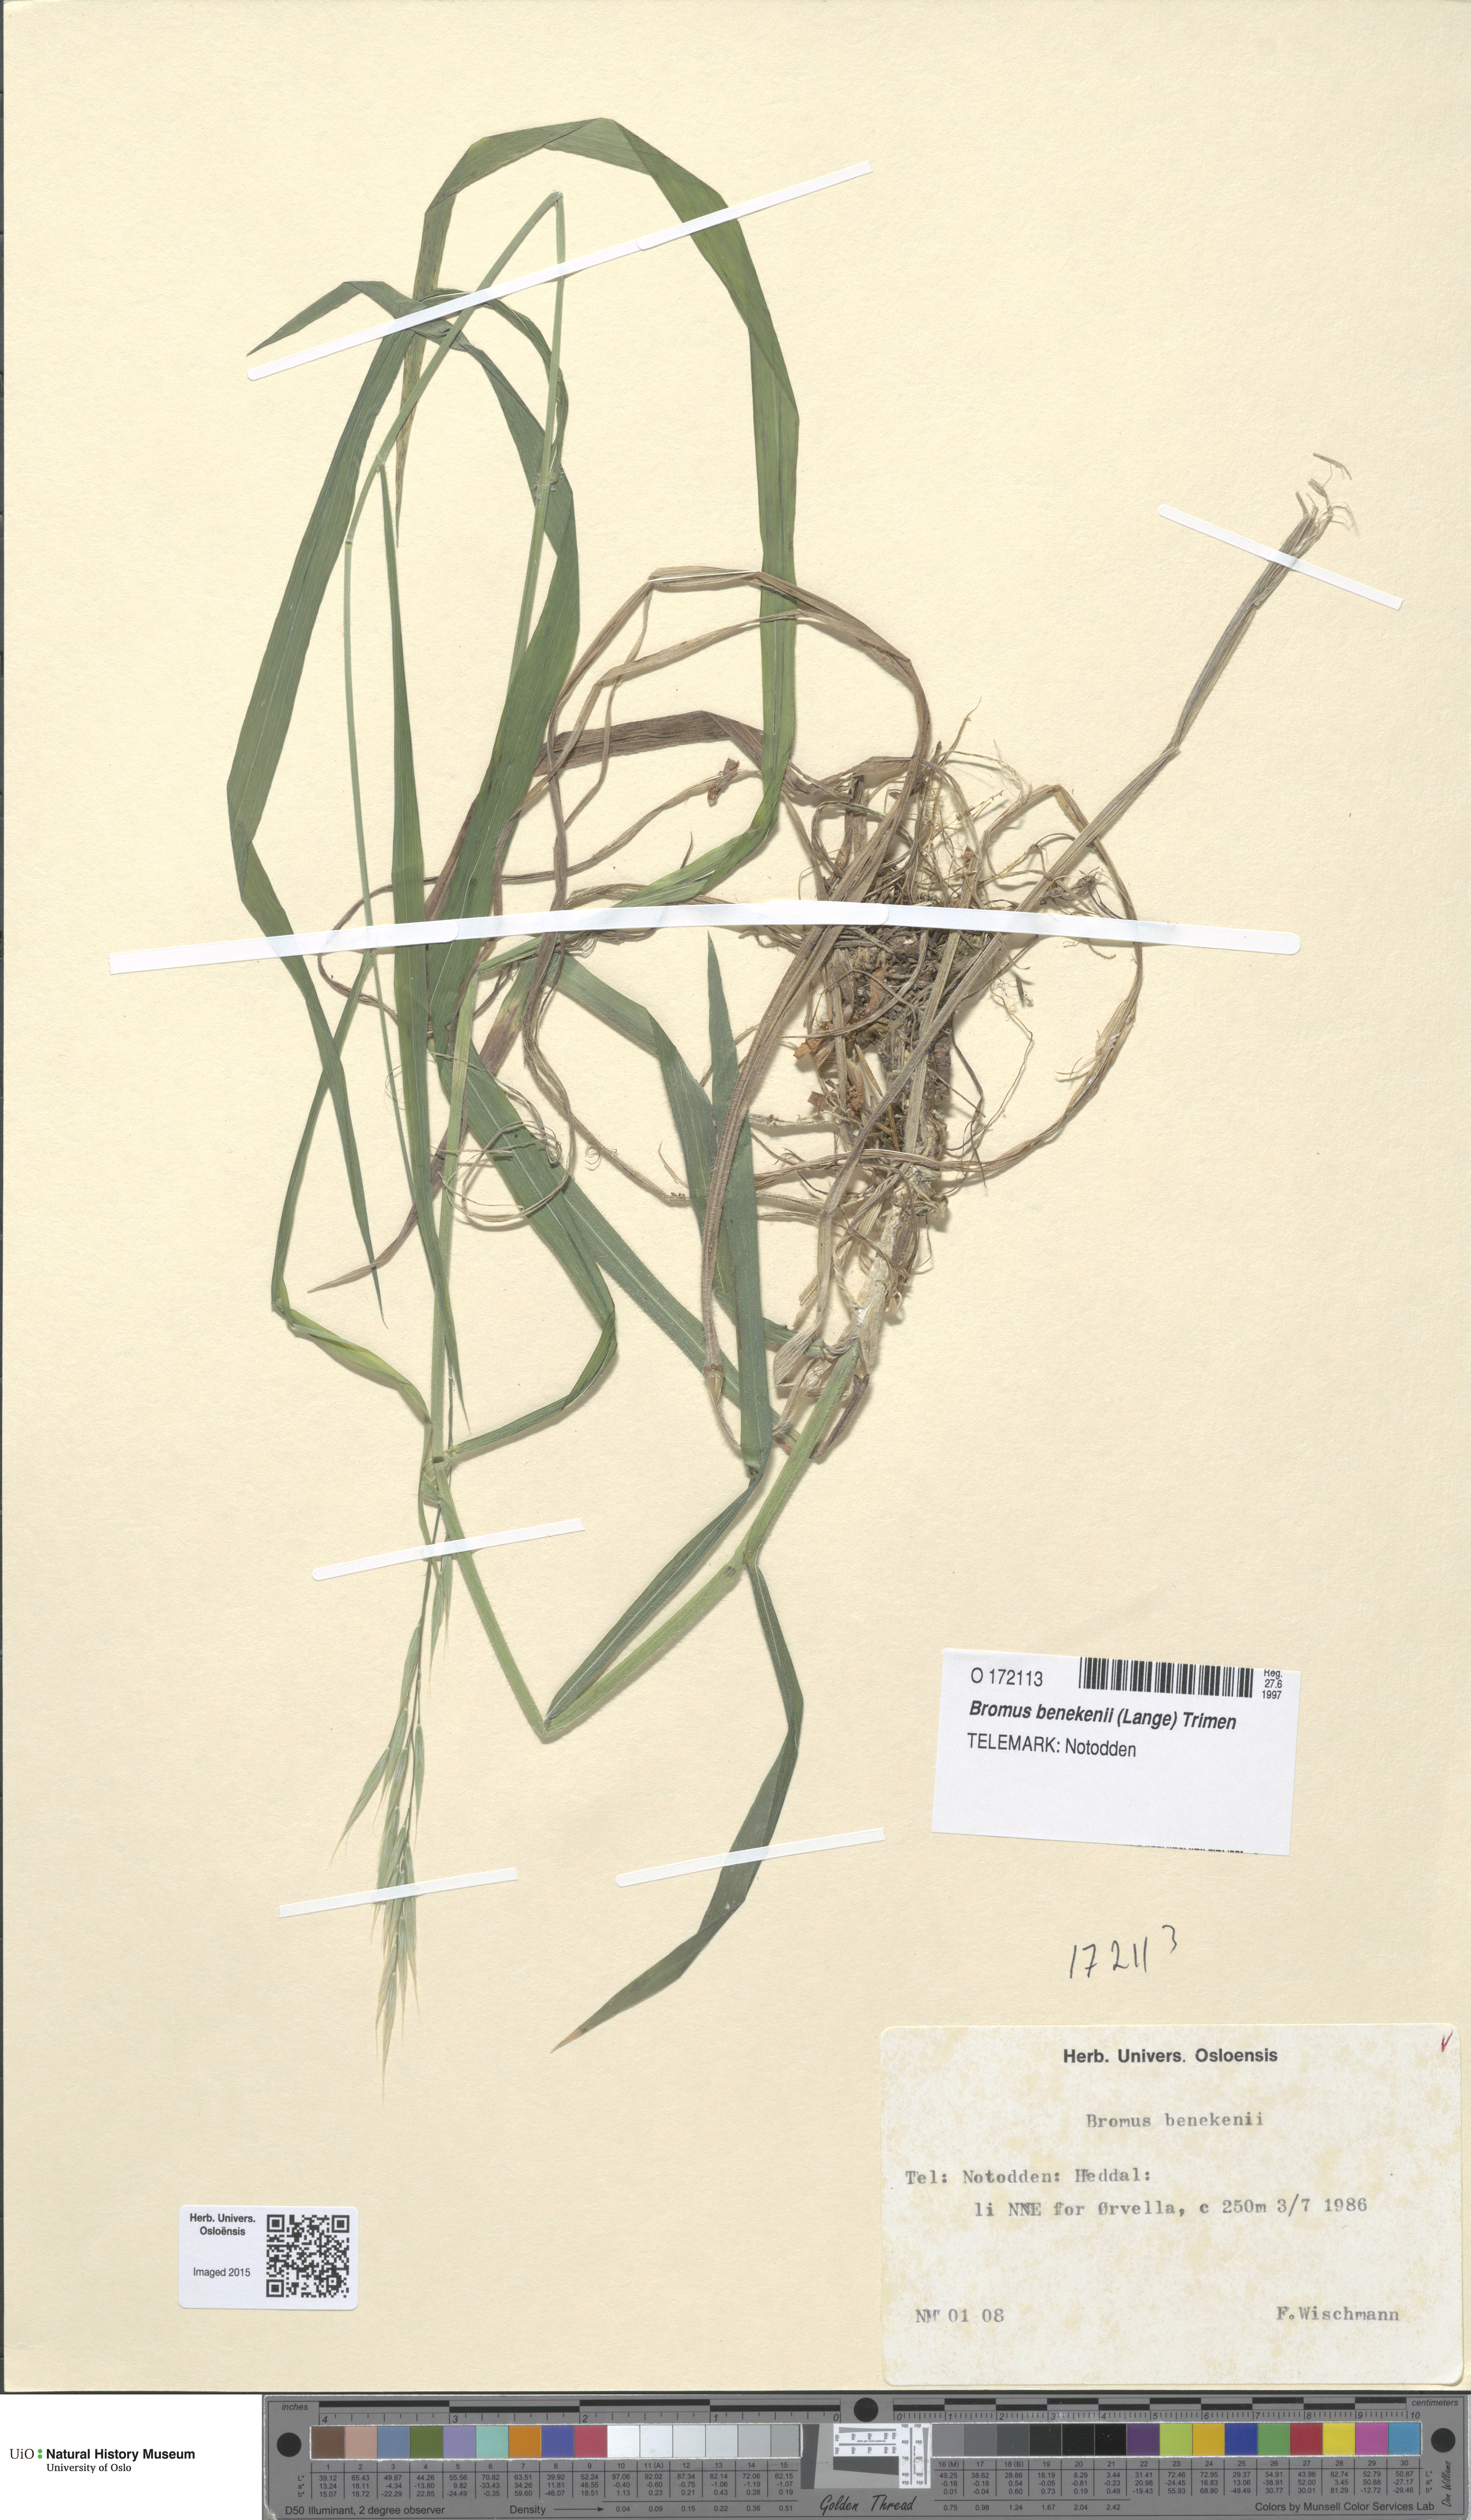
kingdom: Plantae
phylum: Tracheophyta
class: Liliopsida
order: Poales
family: Poaceae
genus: Bromus
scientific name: Bromus benekenii
